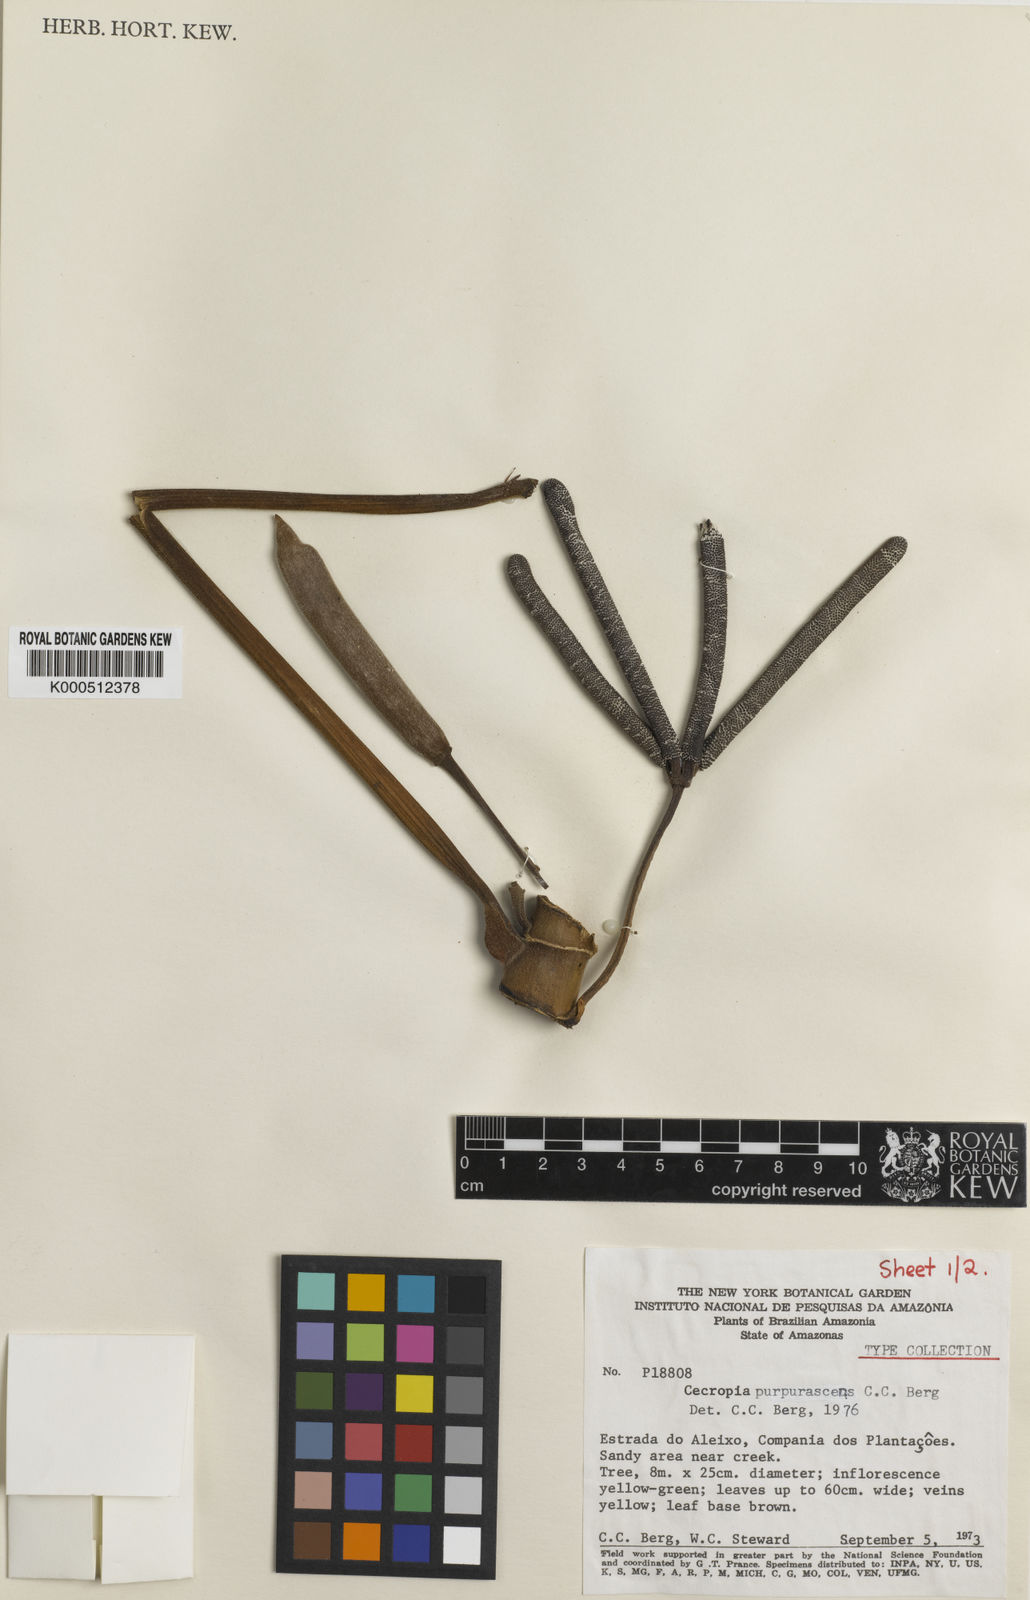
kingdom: Plantae
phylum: Tracheophyta
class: Magnoliopsida
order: Rosales
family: Urticaceae
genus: Cecropia
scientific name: Cecropia purpurascens
